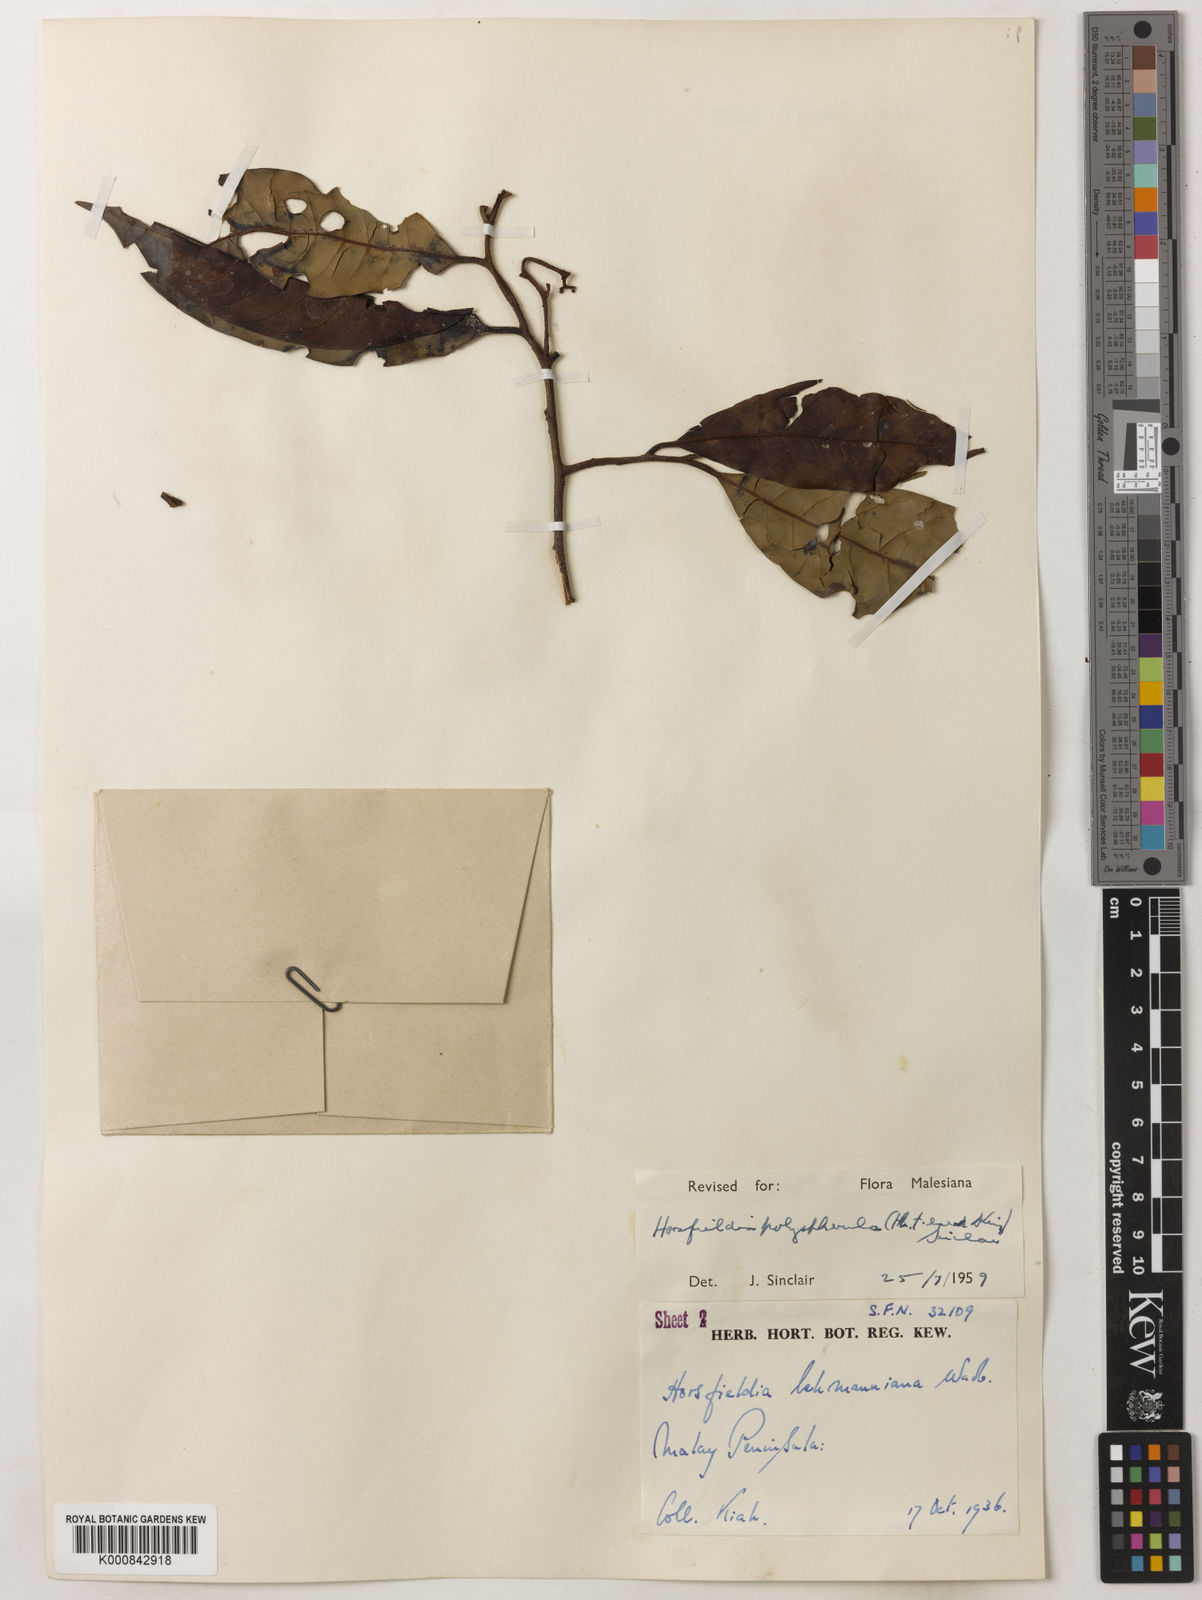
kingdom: Plantae
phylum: Tracheophyta
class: Magnoliopsida
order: Magnoliales
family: Myristicaceae
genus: Horsfieldia
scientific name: Horsfieldia
